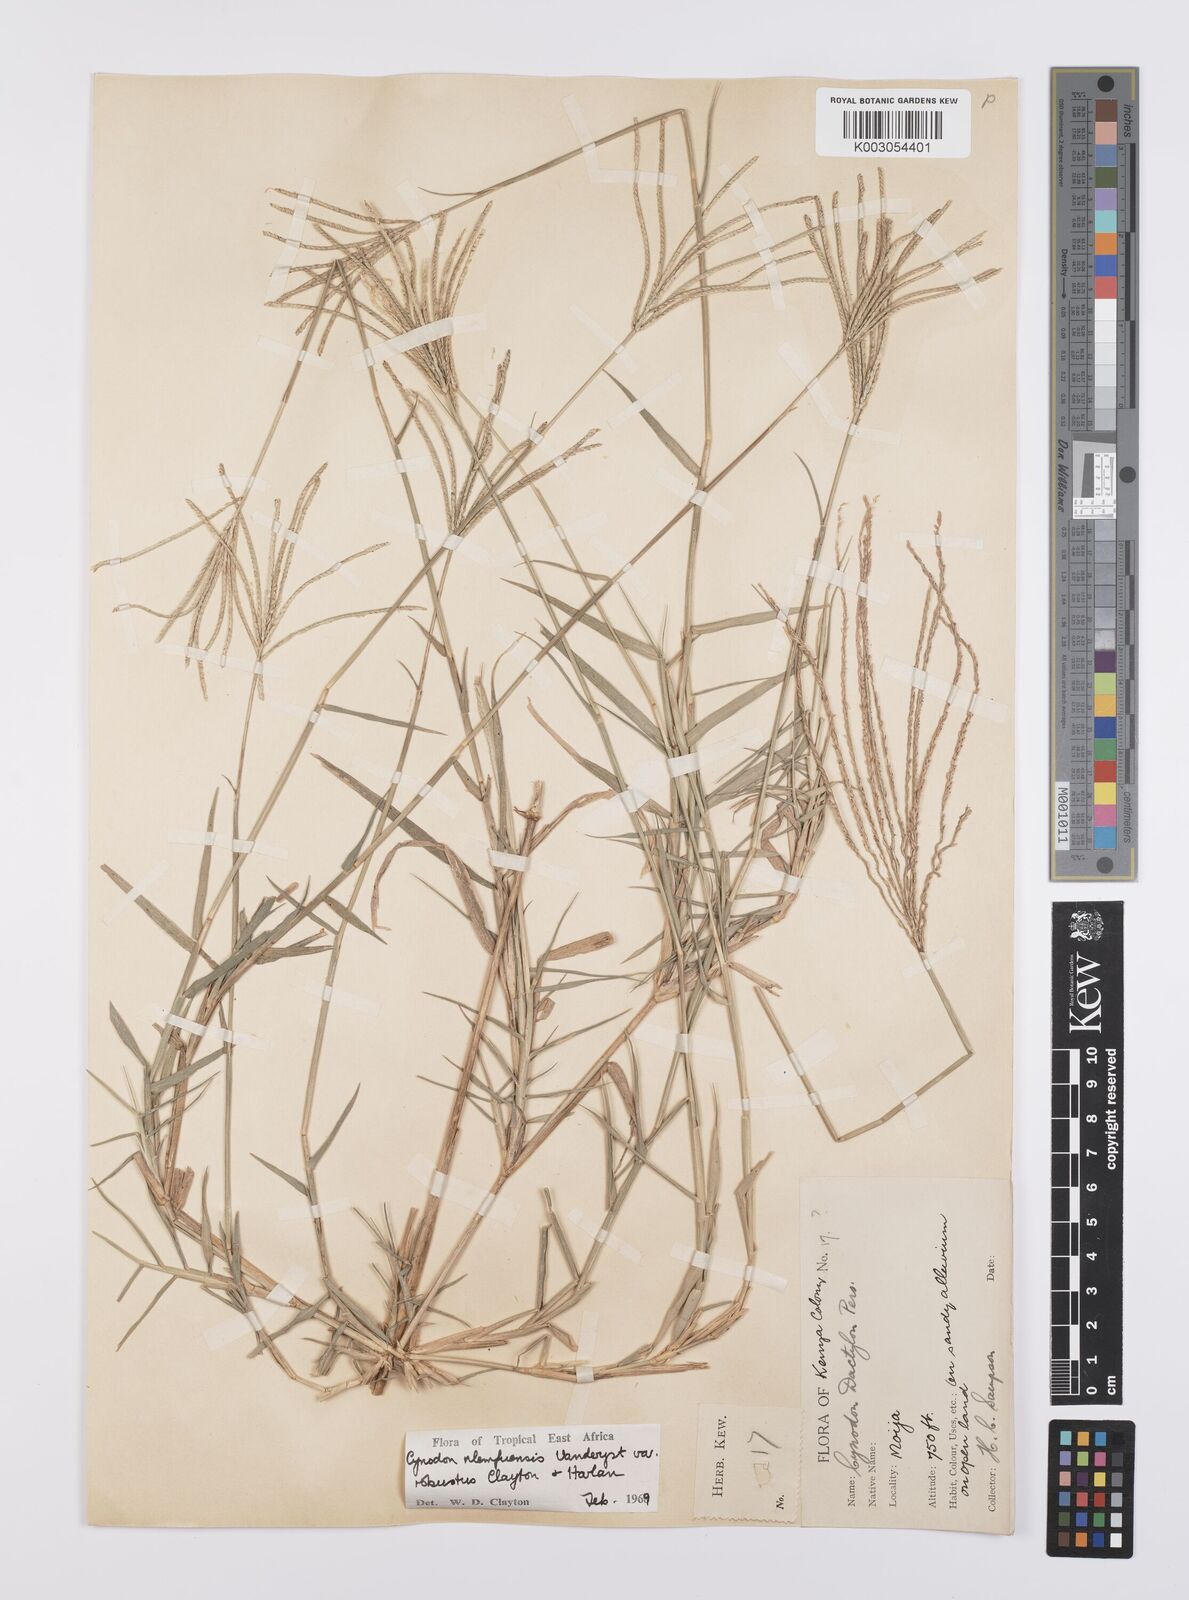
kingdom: Plantae
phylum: Tracheophyta
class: Liliopsida
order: Poales
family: Poaceae
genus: Cynodon
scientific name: Cynodon nlemfuensis
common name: African bermudagrass
